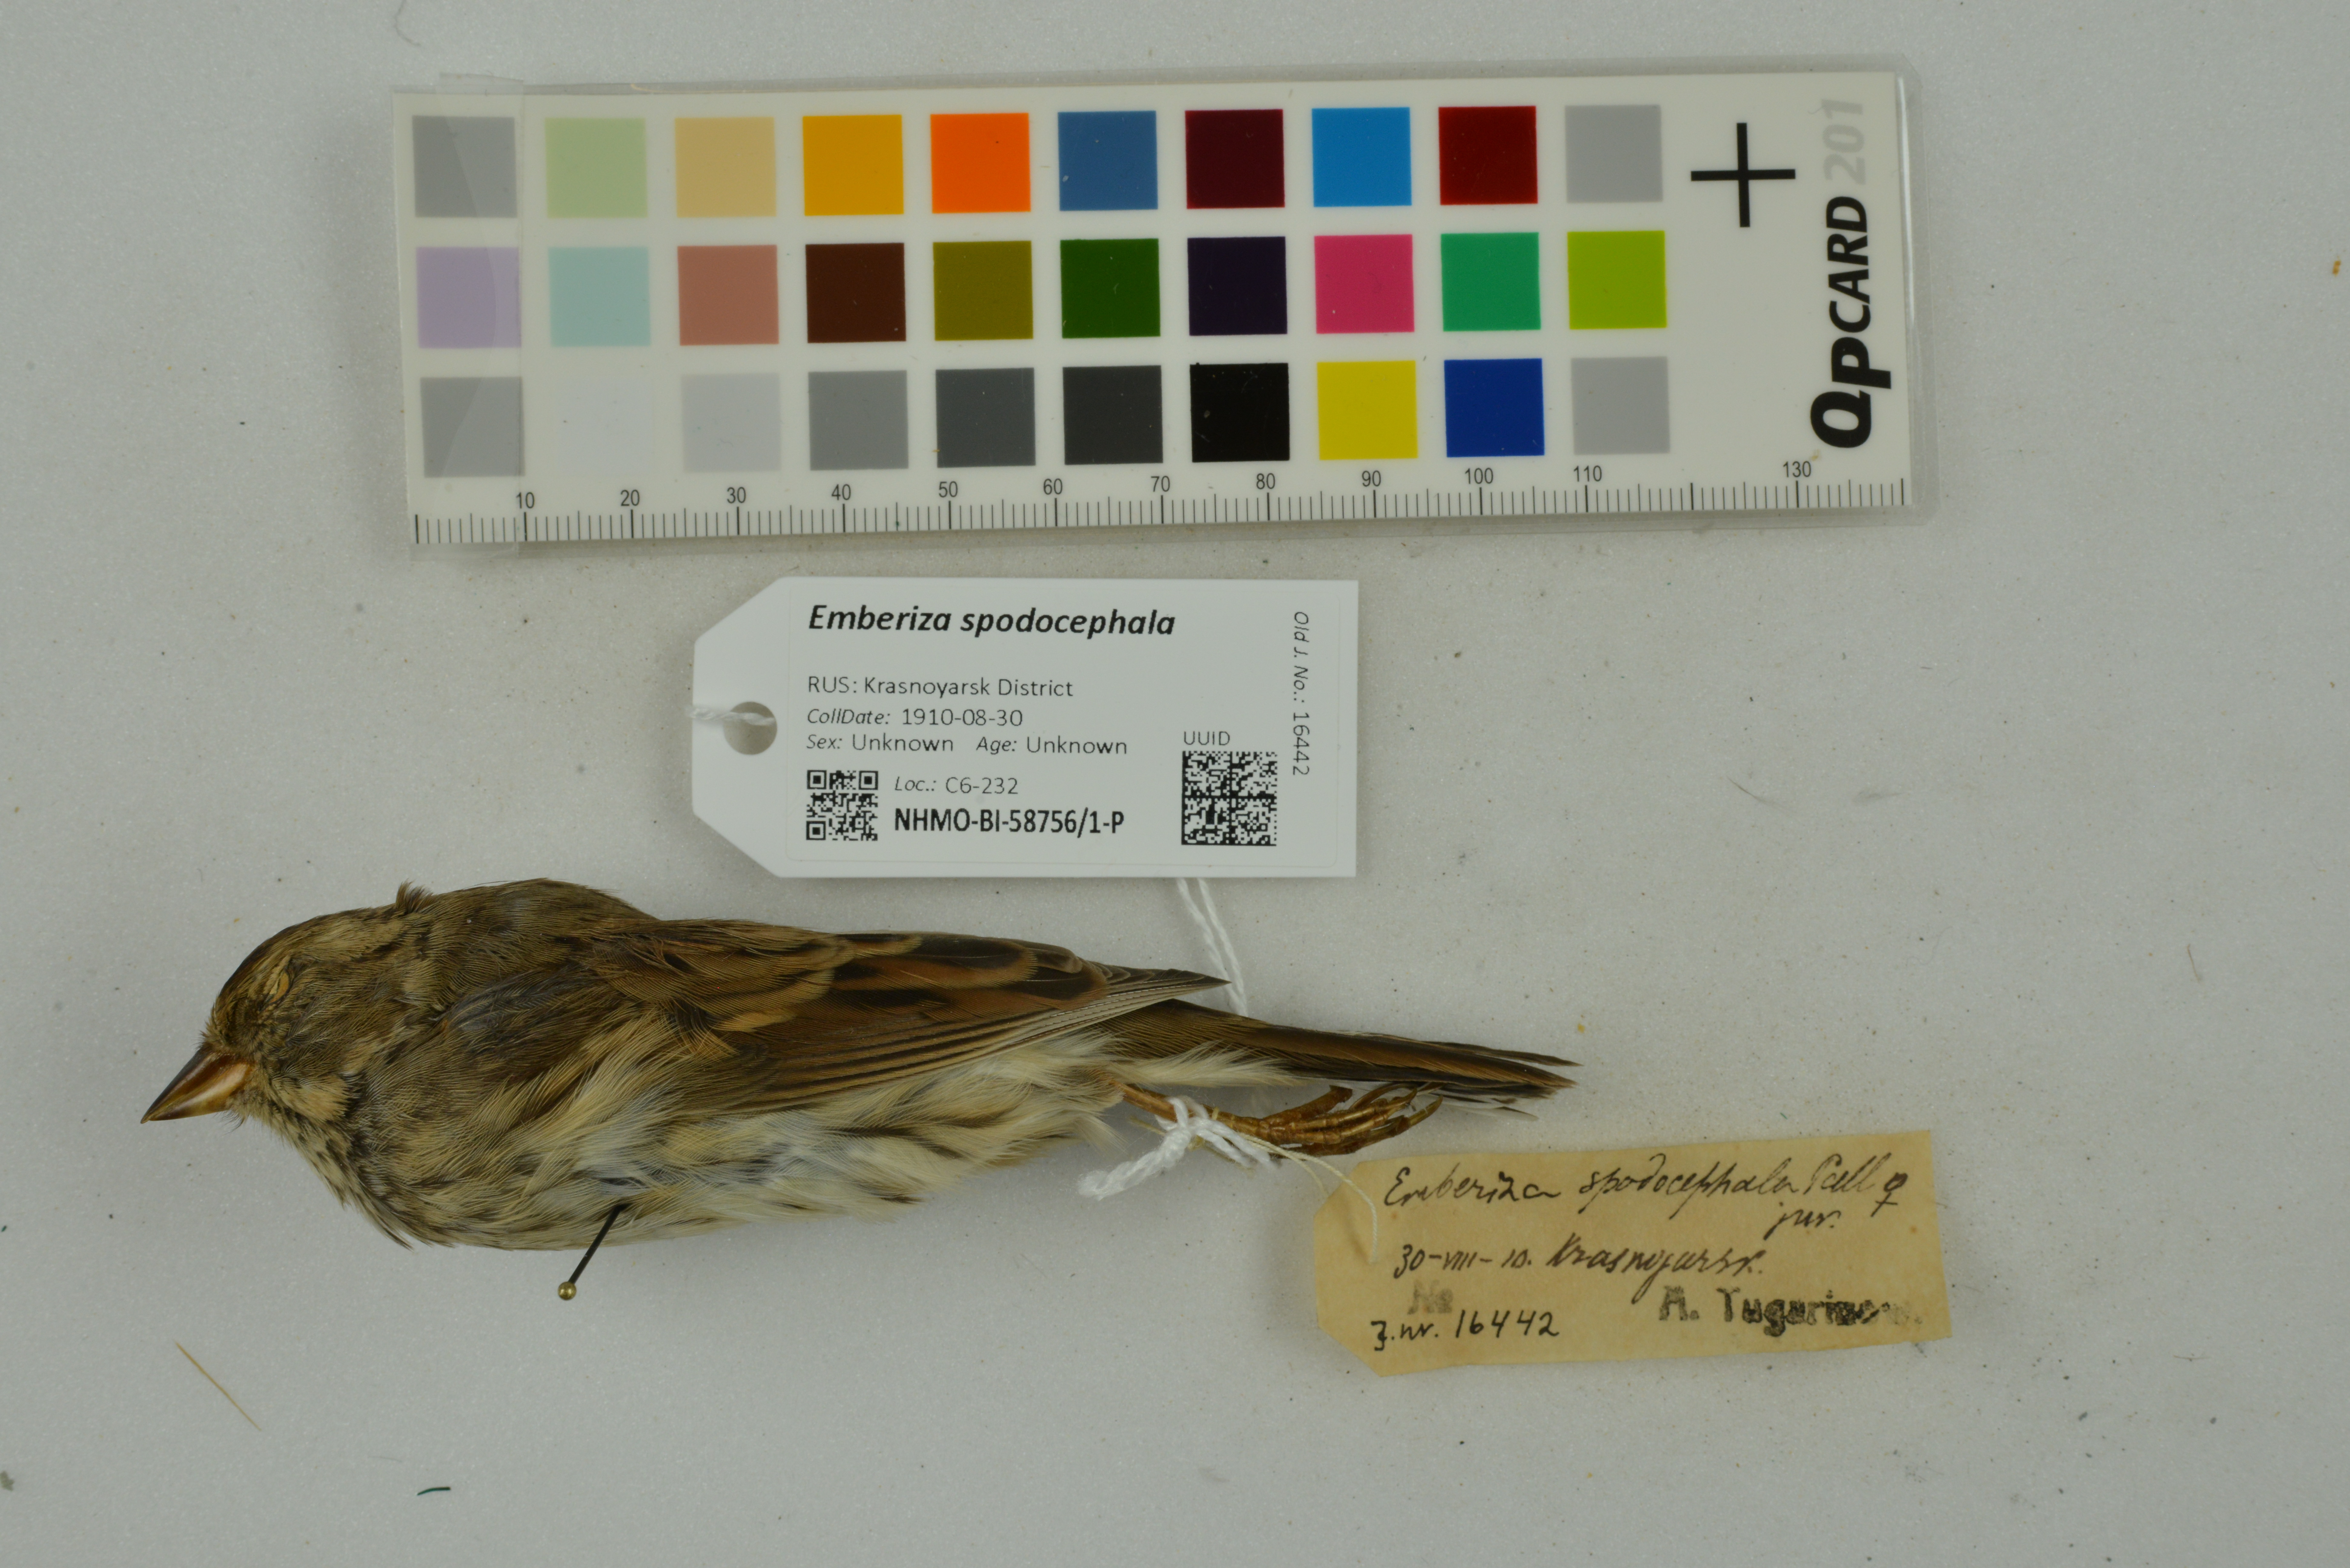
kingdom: Animalia
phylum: Chordata
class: Aves
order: Passeriformes
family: Emberizidae
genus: Emberiza
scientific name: Emberiza spodocephala
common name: Black-faced bunting
